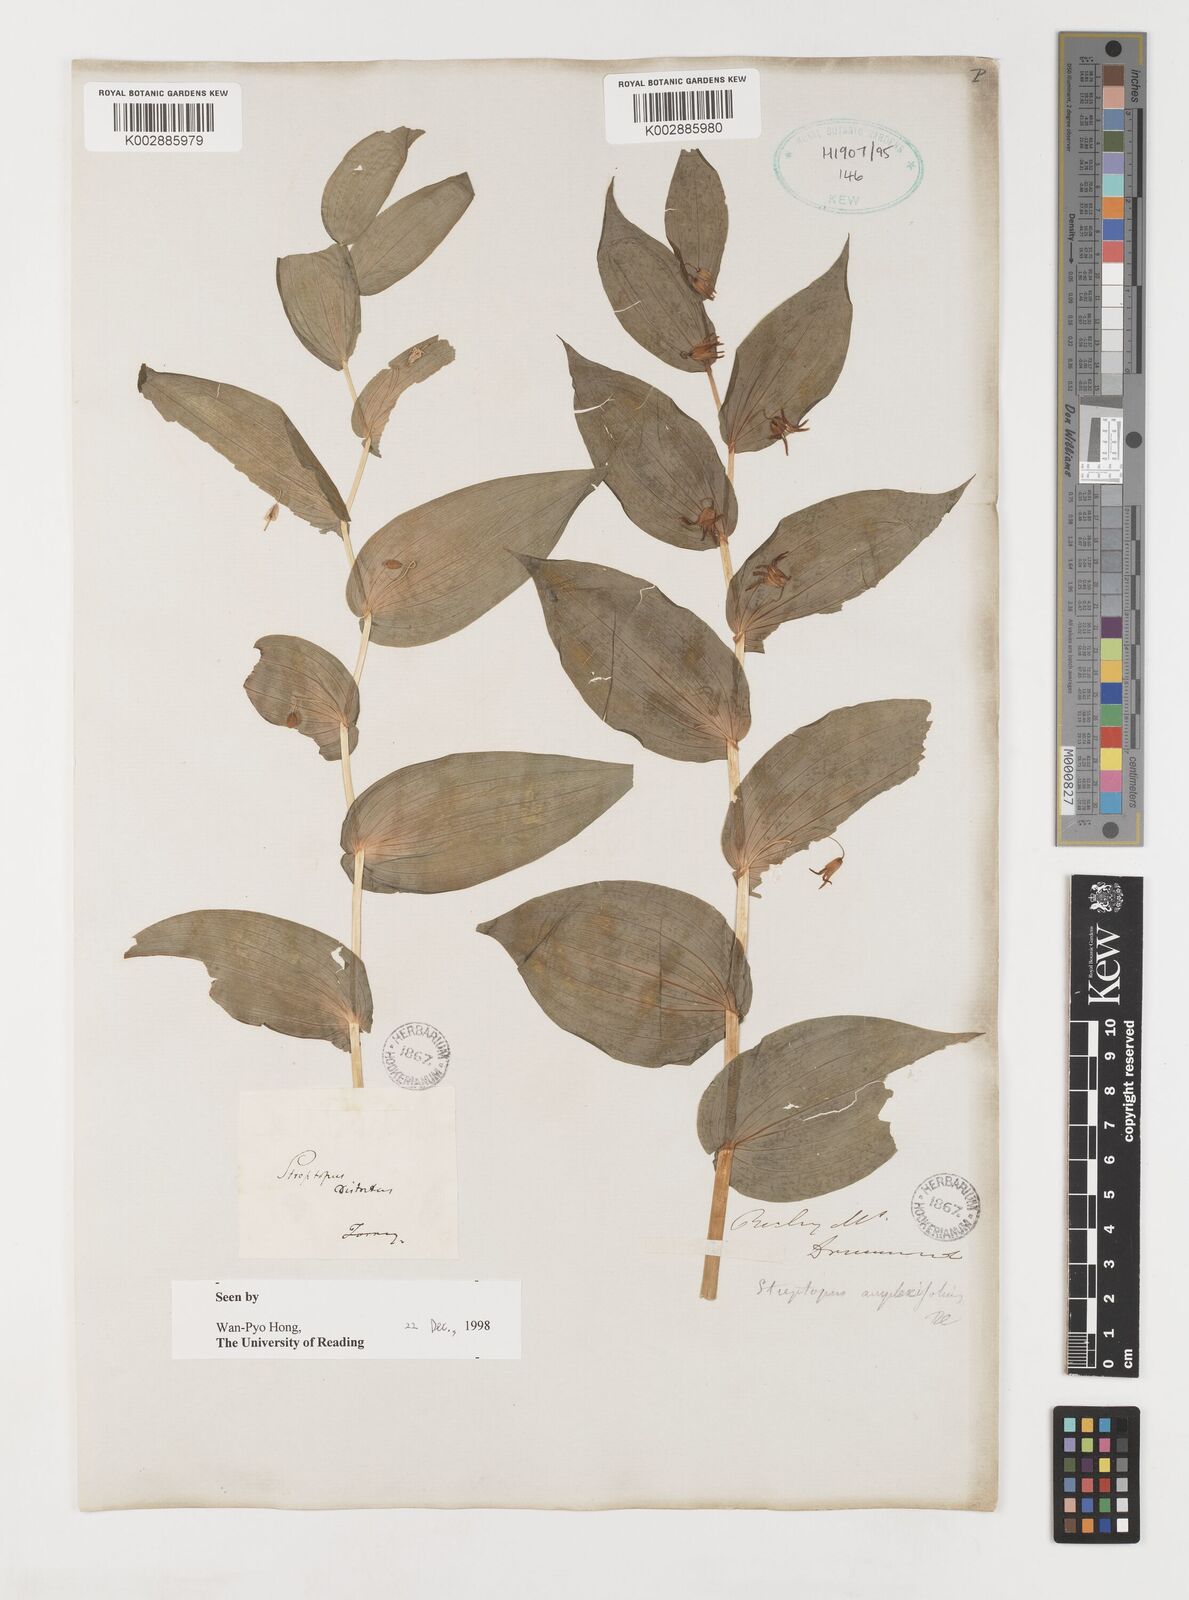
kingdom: Plantae
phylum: Tracheophyta
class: Liliopsida
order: Liliales
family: Liliaceae
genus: Streptopus
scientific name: Streptopus amplexifolius
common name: Clasp twisted stalk
